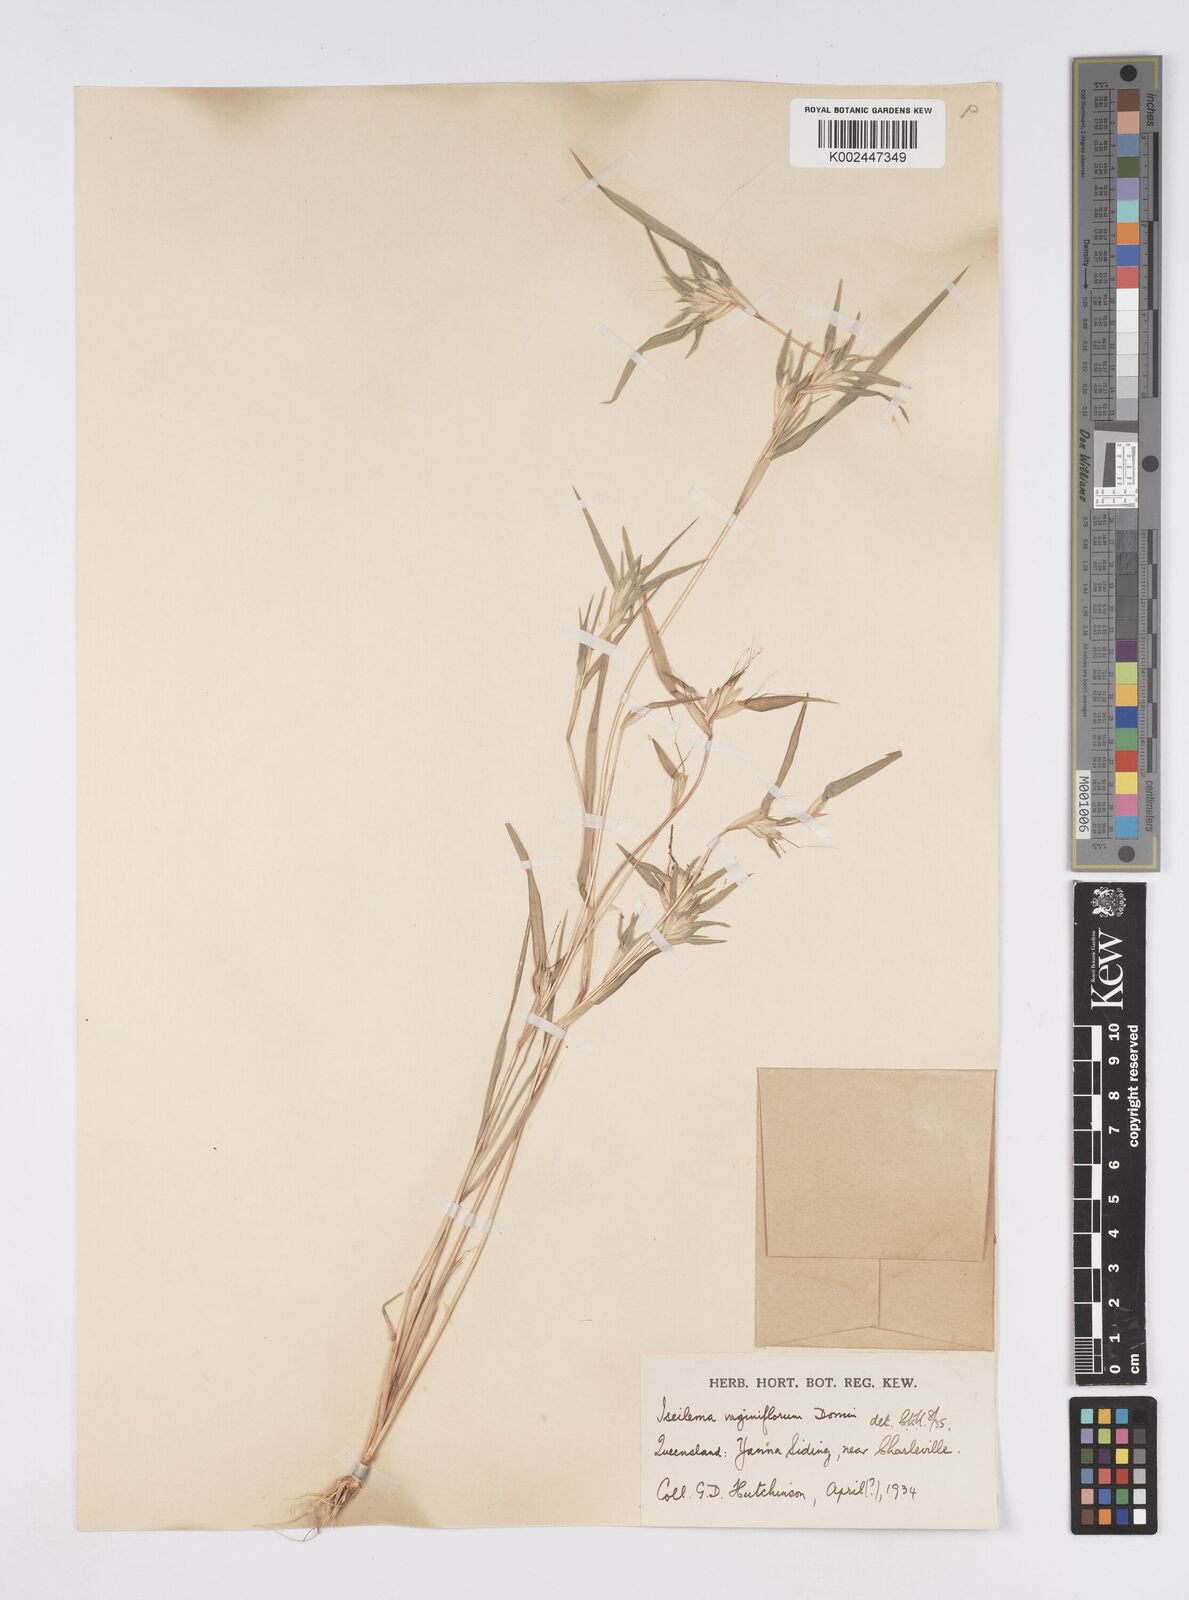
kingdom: Plantae
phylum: Tracheophyta
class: Liliopsida
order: Poales
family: Poaceae
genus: Iseilema
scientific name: Iseilema vaginiflorum
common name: Red flinders grass
